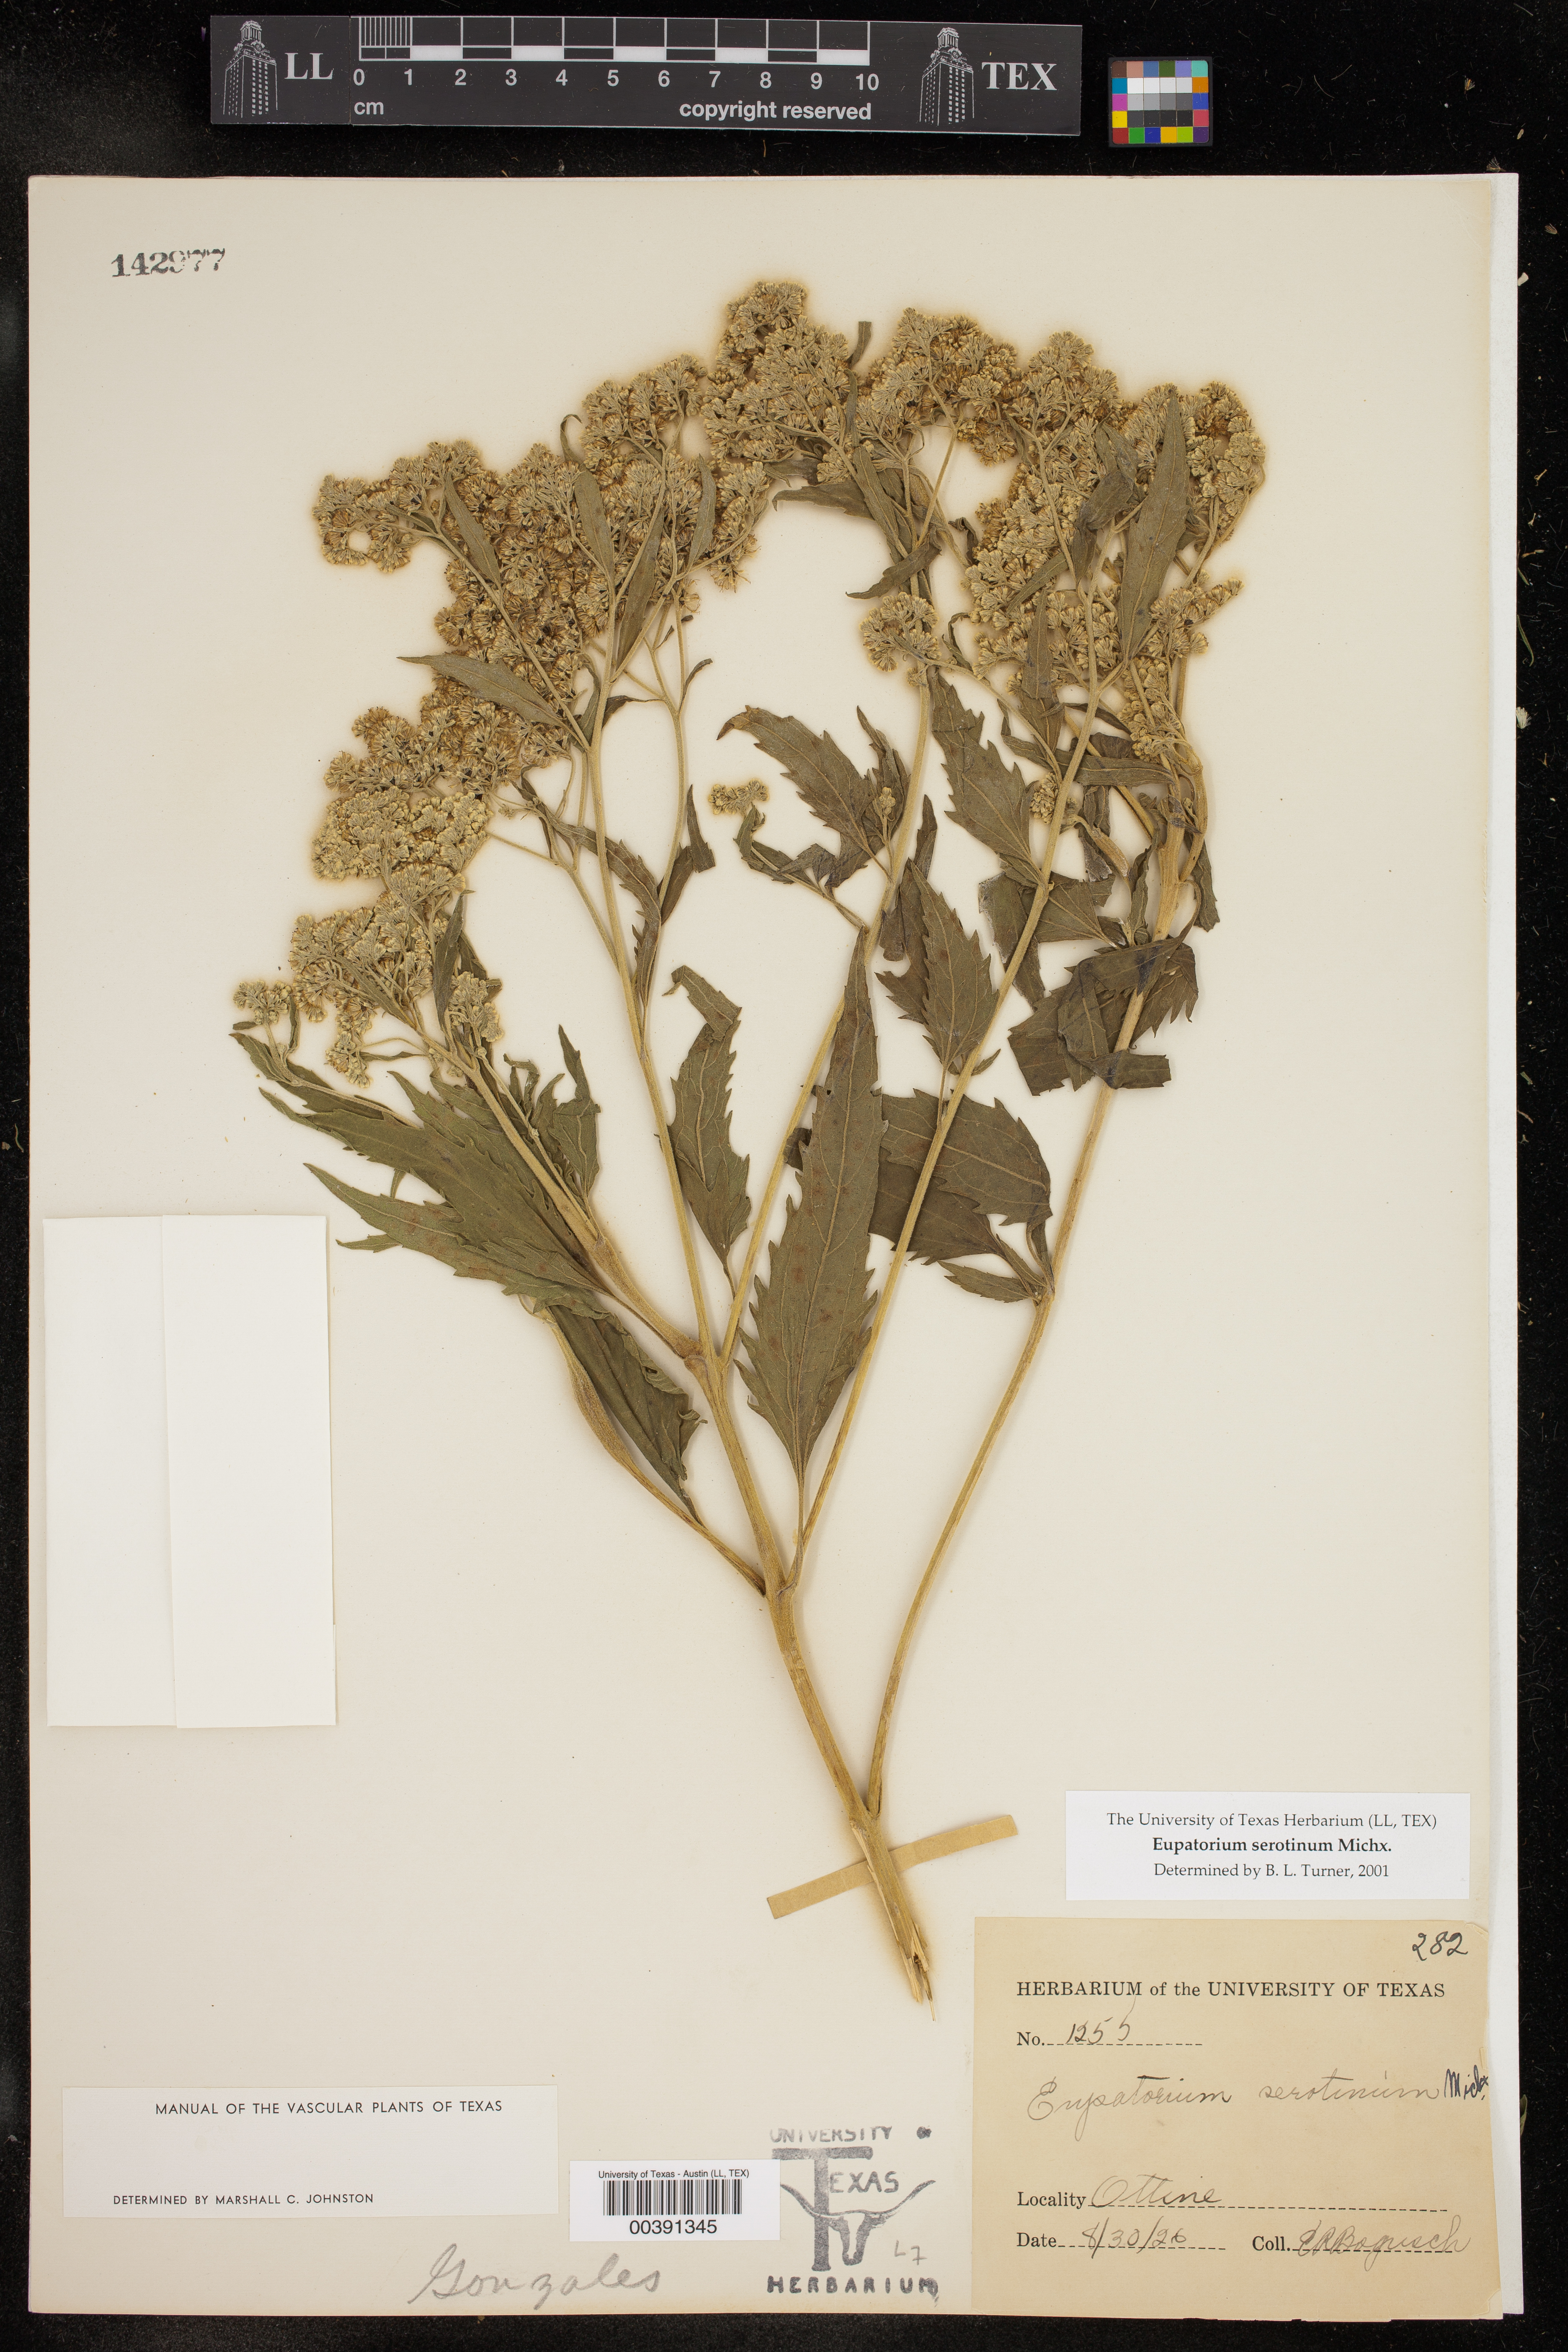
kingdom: Plantae
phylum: Tracheophyta
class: Magnoliopsida
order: Asterales
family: Asteraceae
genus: Eupatorium
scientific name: Eupatorium serotinum
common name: Late boneset
